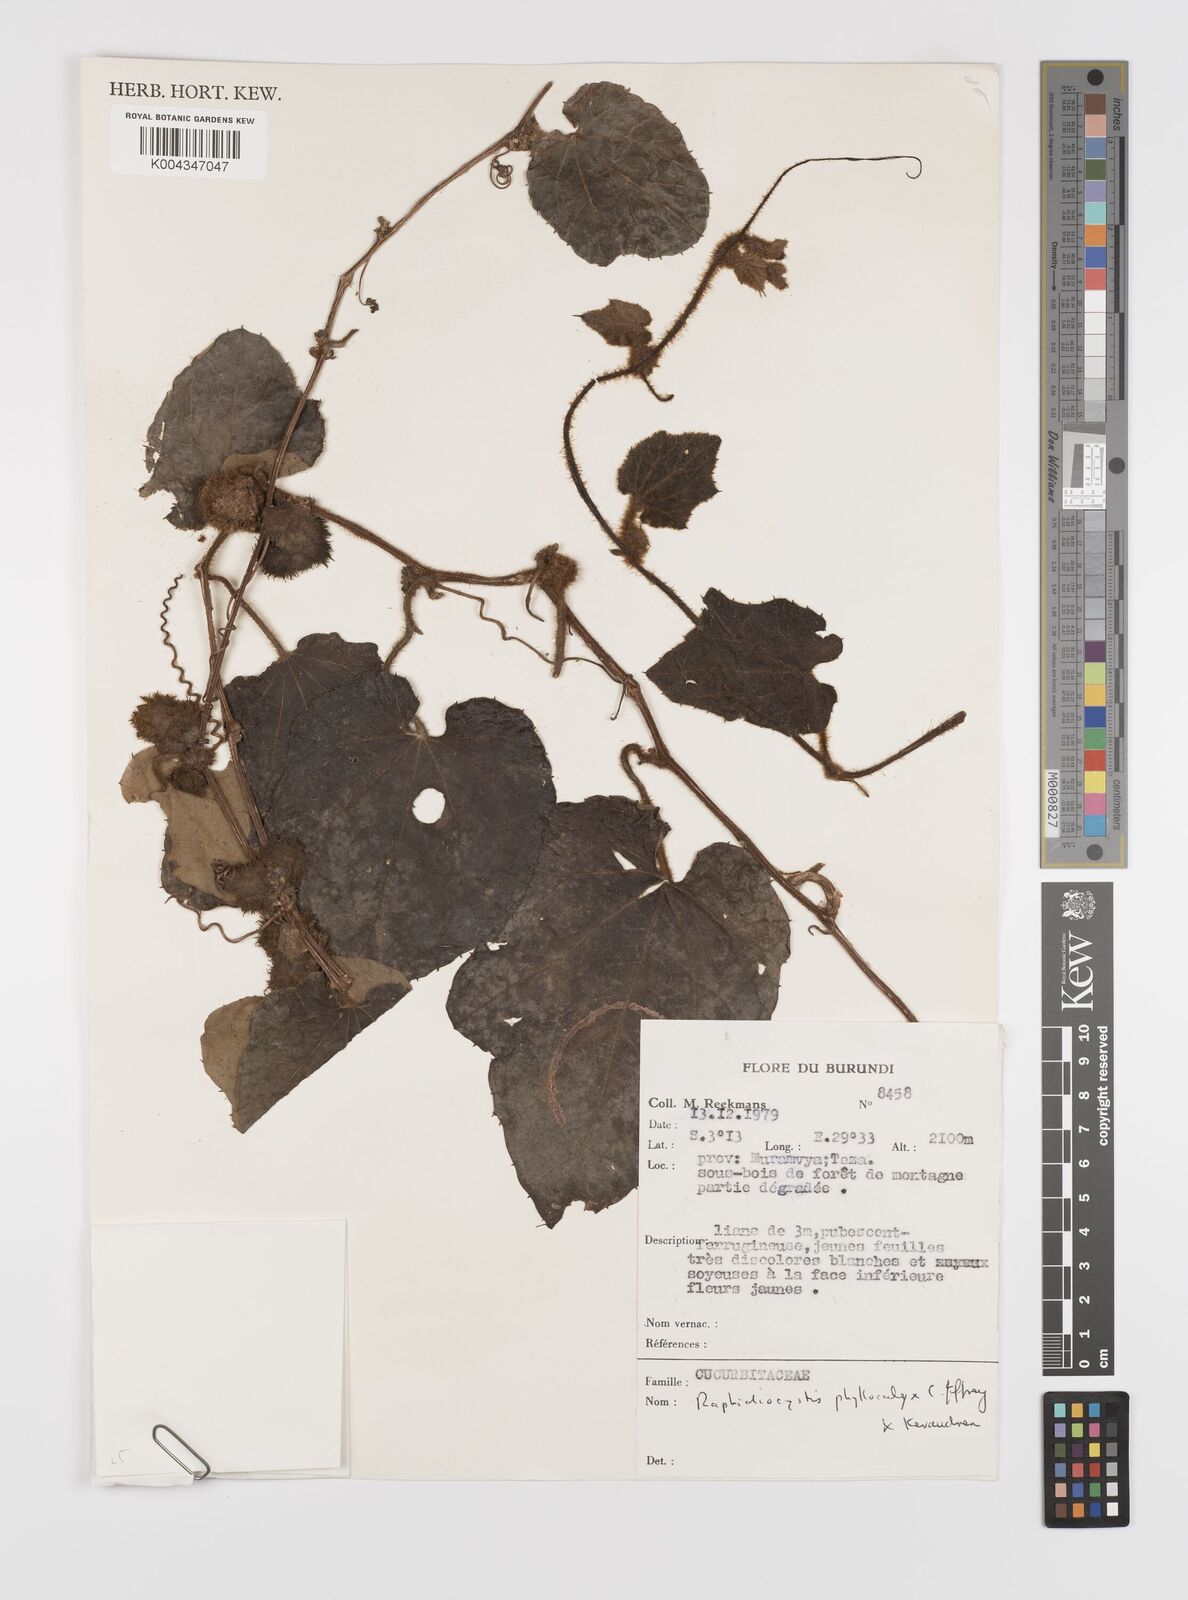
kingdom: Plantae
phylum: Tracheophyta
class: Magnoliopsida
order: Cucurbitales
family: Cucurbitaceae
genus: Raphidiocystis
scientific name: Raphidiocystis phyllocalyx
